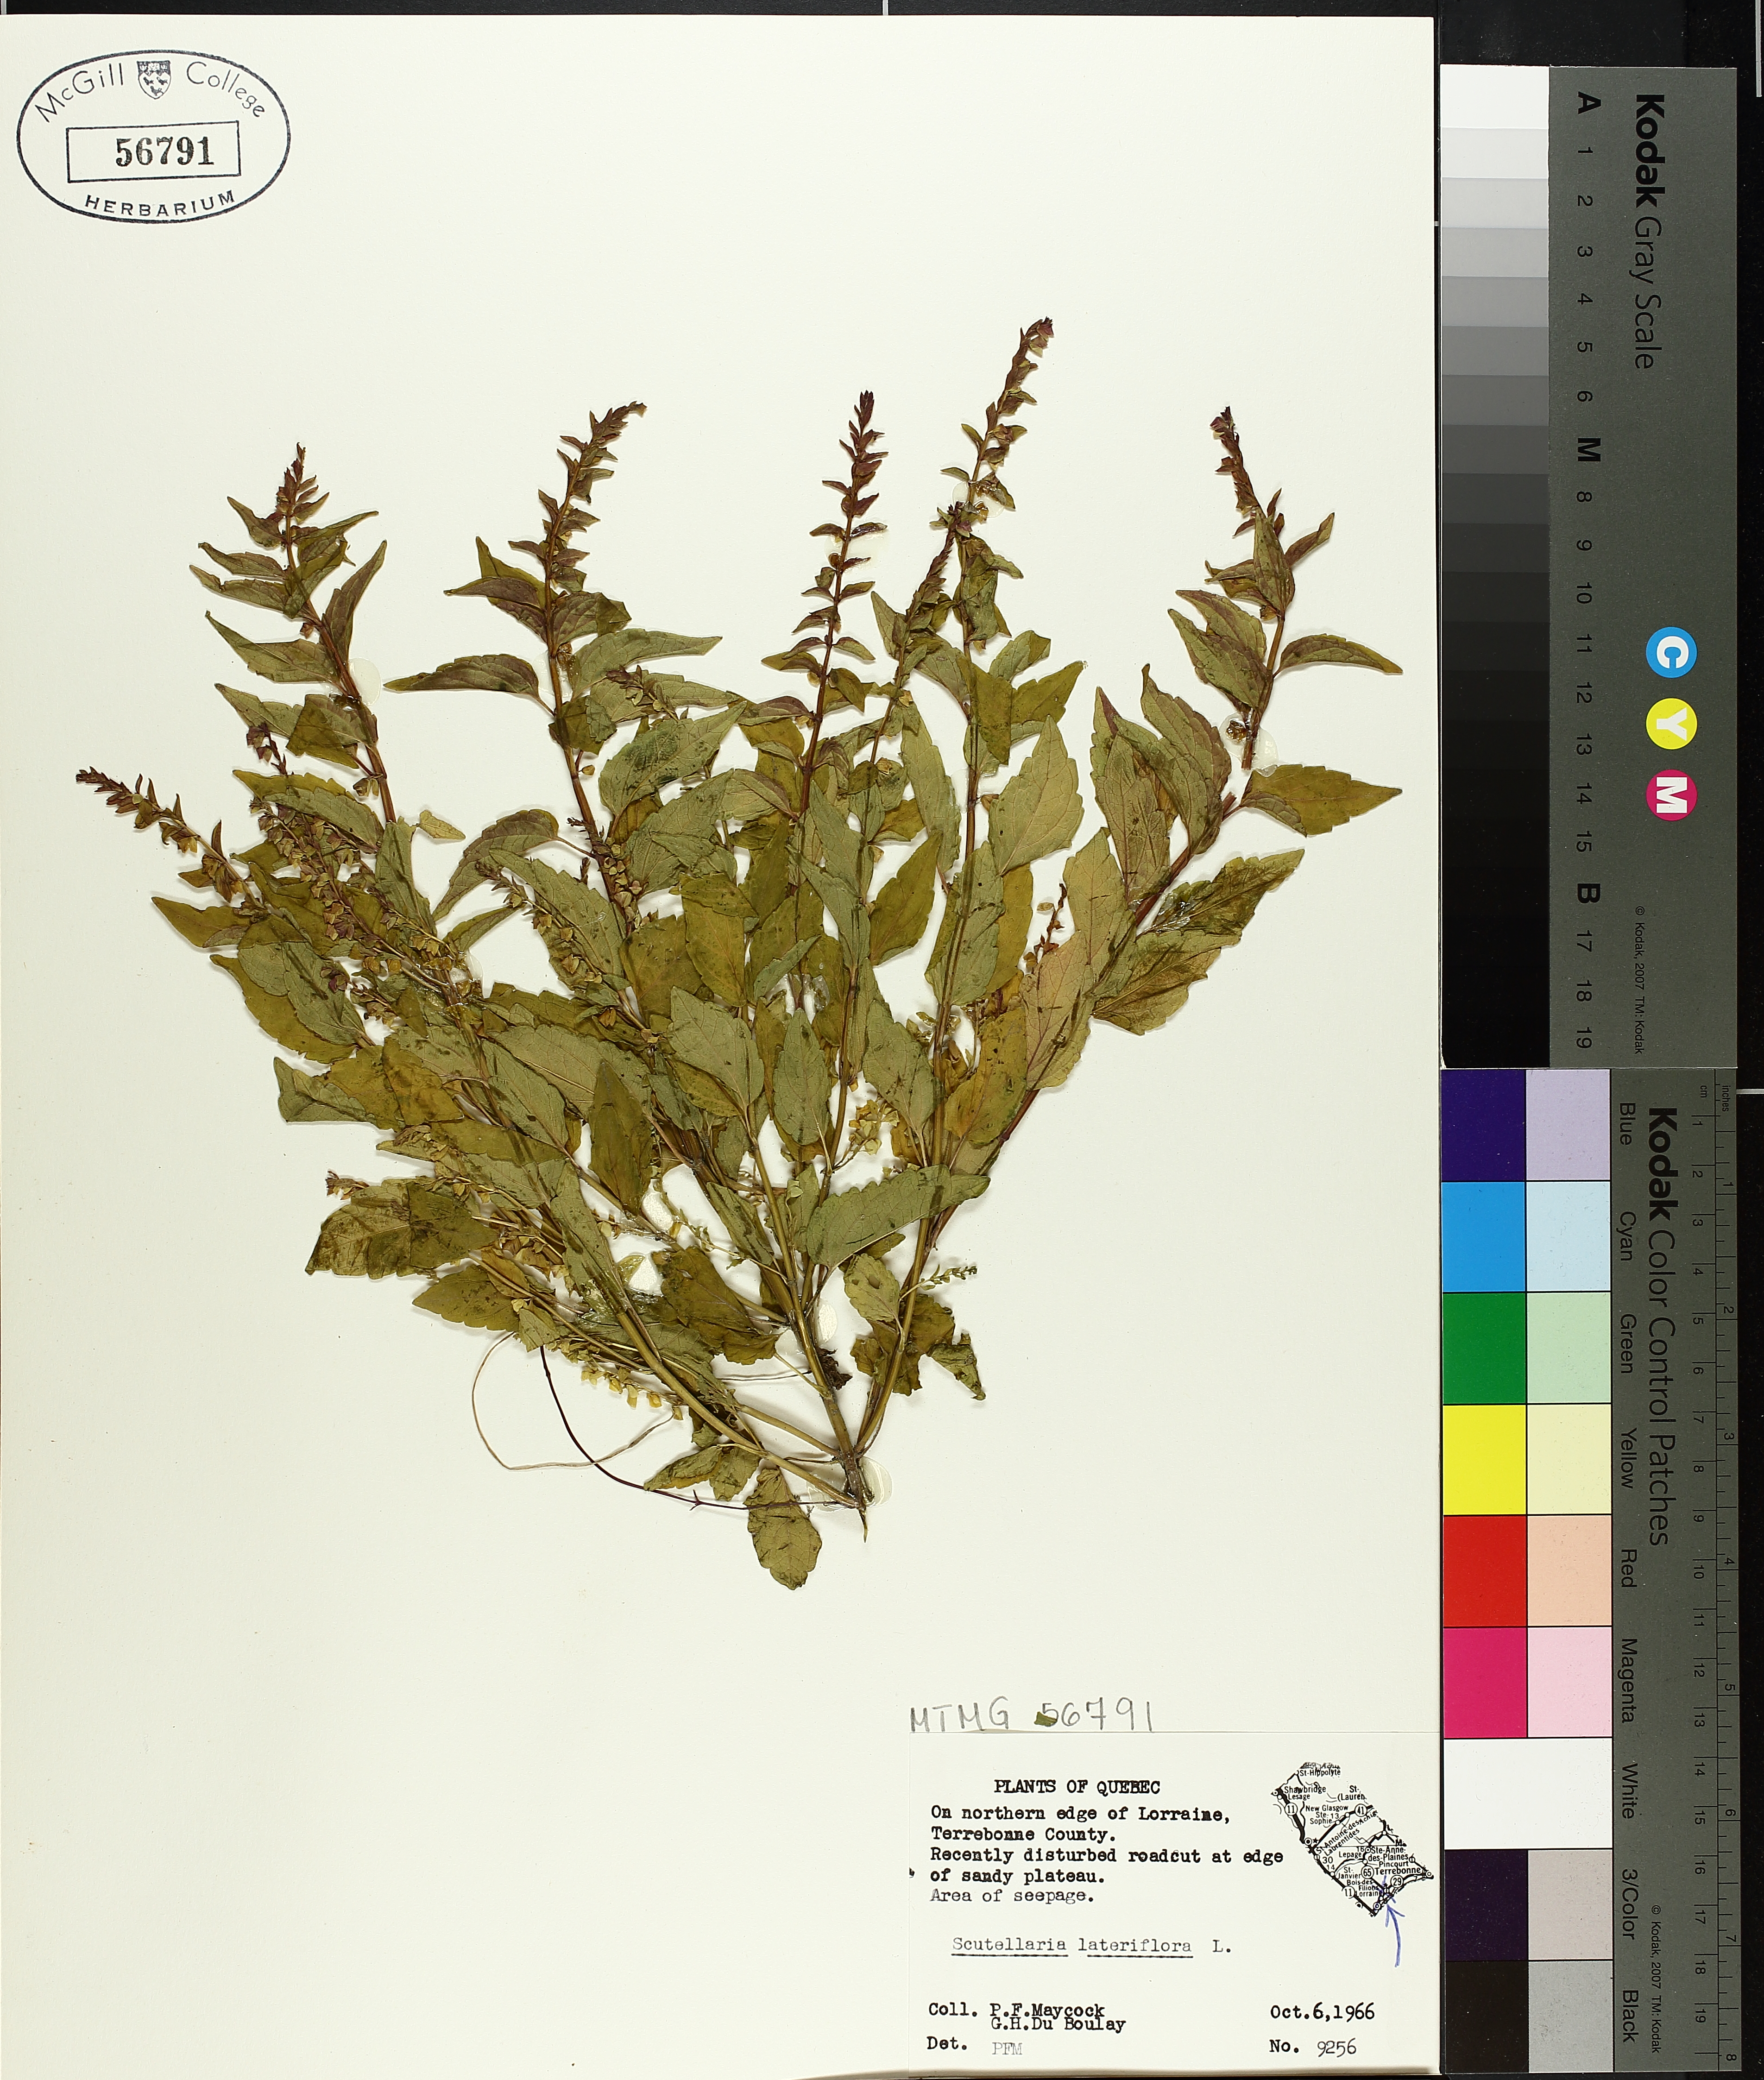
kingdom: Plantae
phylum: Tracheophyta
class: Magnoliopsida
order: Lamiales
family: Lamiaceae
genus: Scutellaria
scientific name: Scutellaria lateriflora
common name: Blue skullcap
